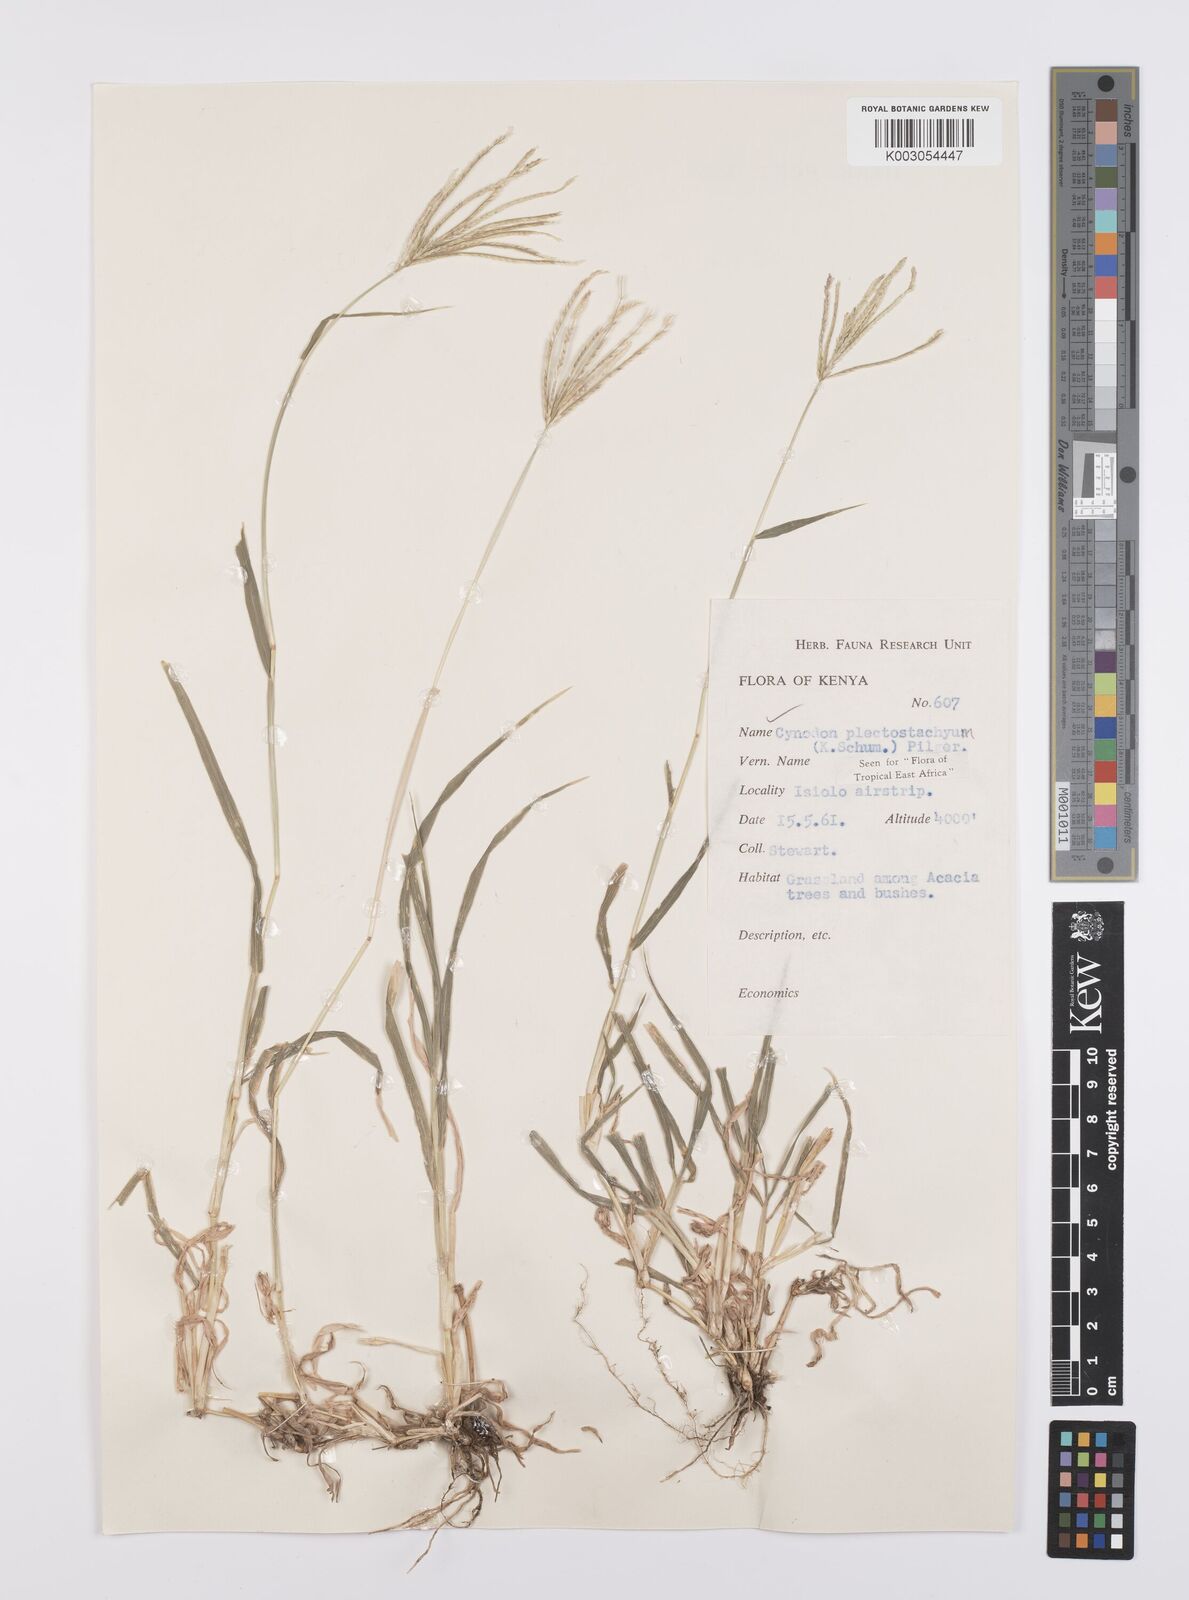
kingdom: Plantae
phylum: Tracheophyta
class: Liliopsida
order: Poales
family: Poaceae
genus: Cynodon
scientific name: Cynodon plectostachyus
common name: Stargrass
